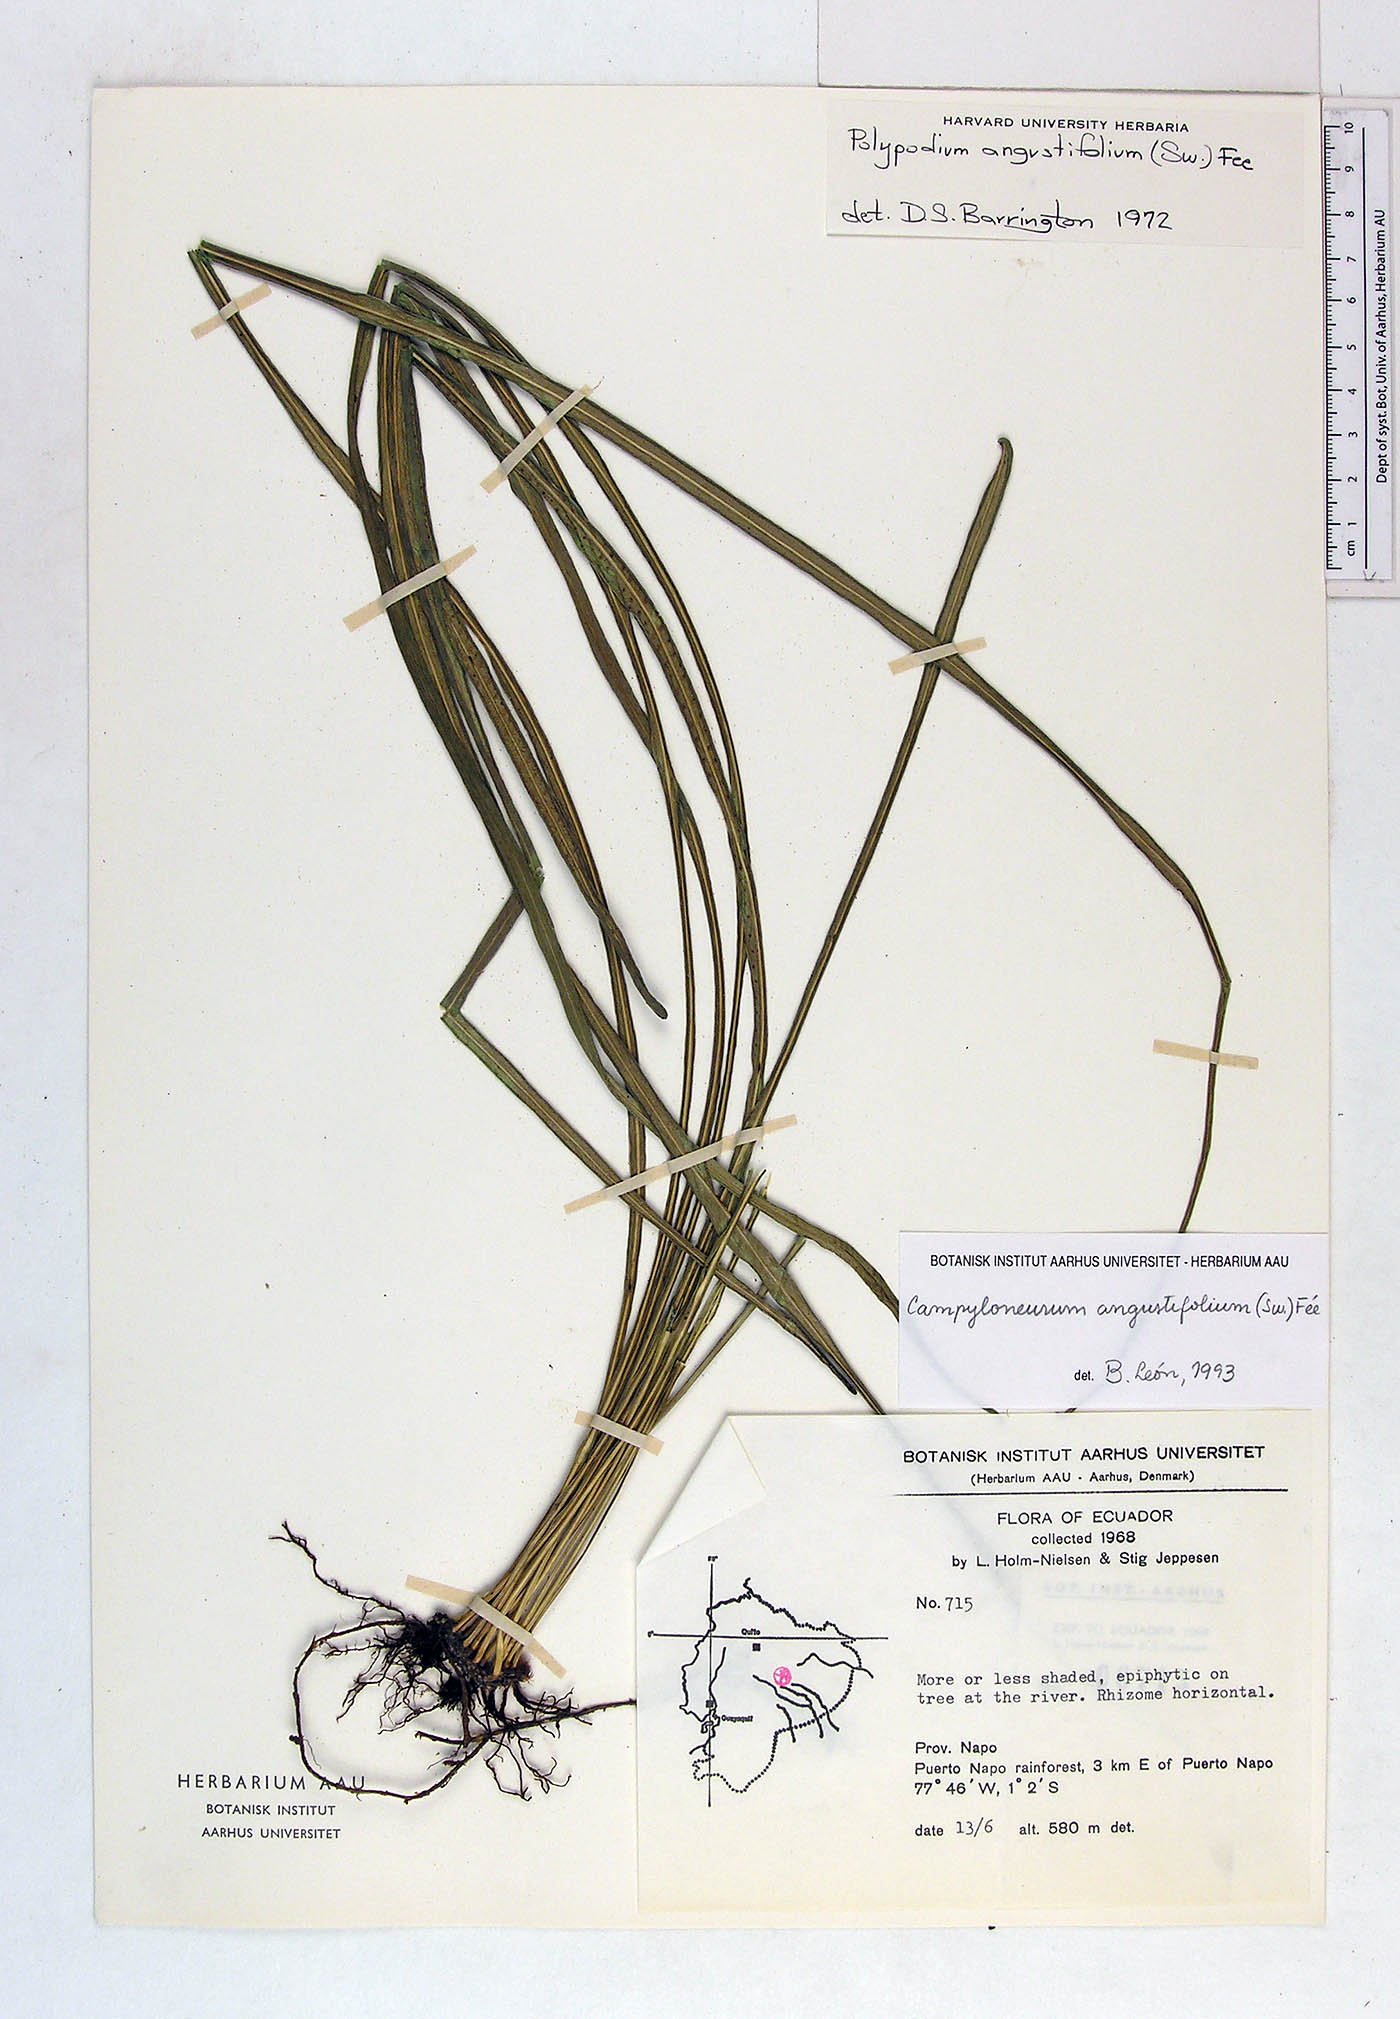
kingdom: Plantae
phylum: Tracheophyta
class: Polypodiopsida
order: Polypodiales
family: Polypodiaceae
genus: Campyloneurum
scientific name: Campyloneurum angustifolium
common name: Narrow-leaf strap fern
